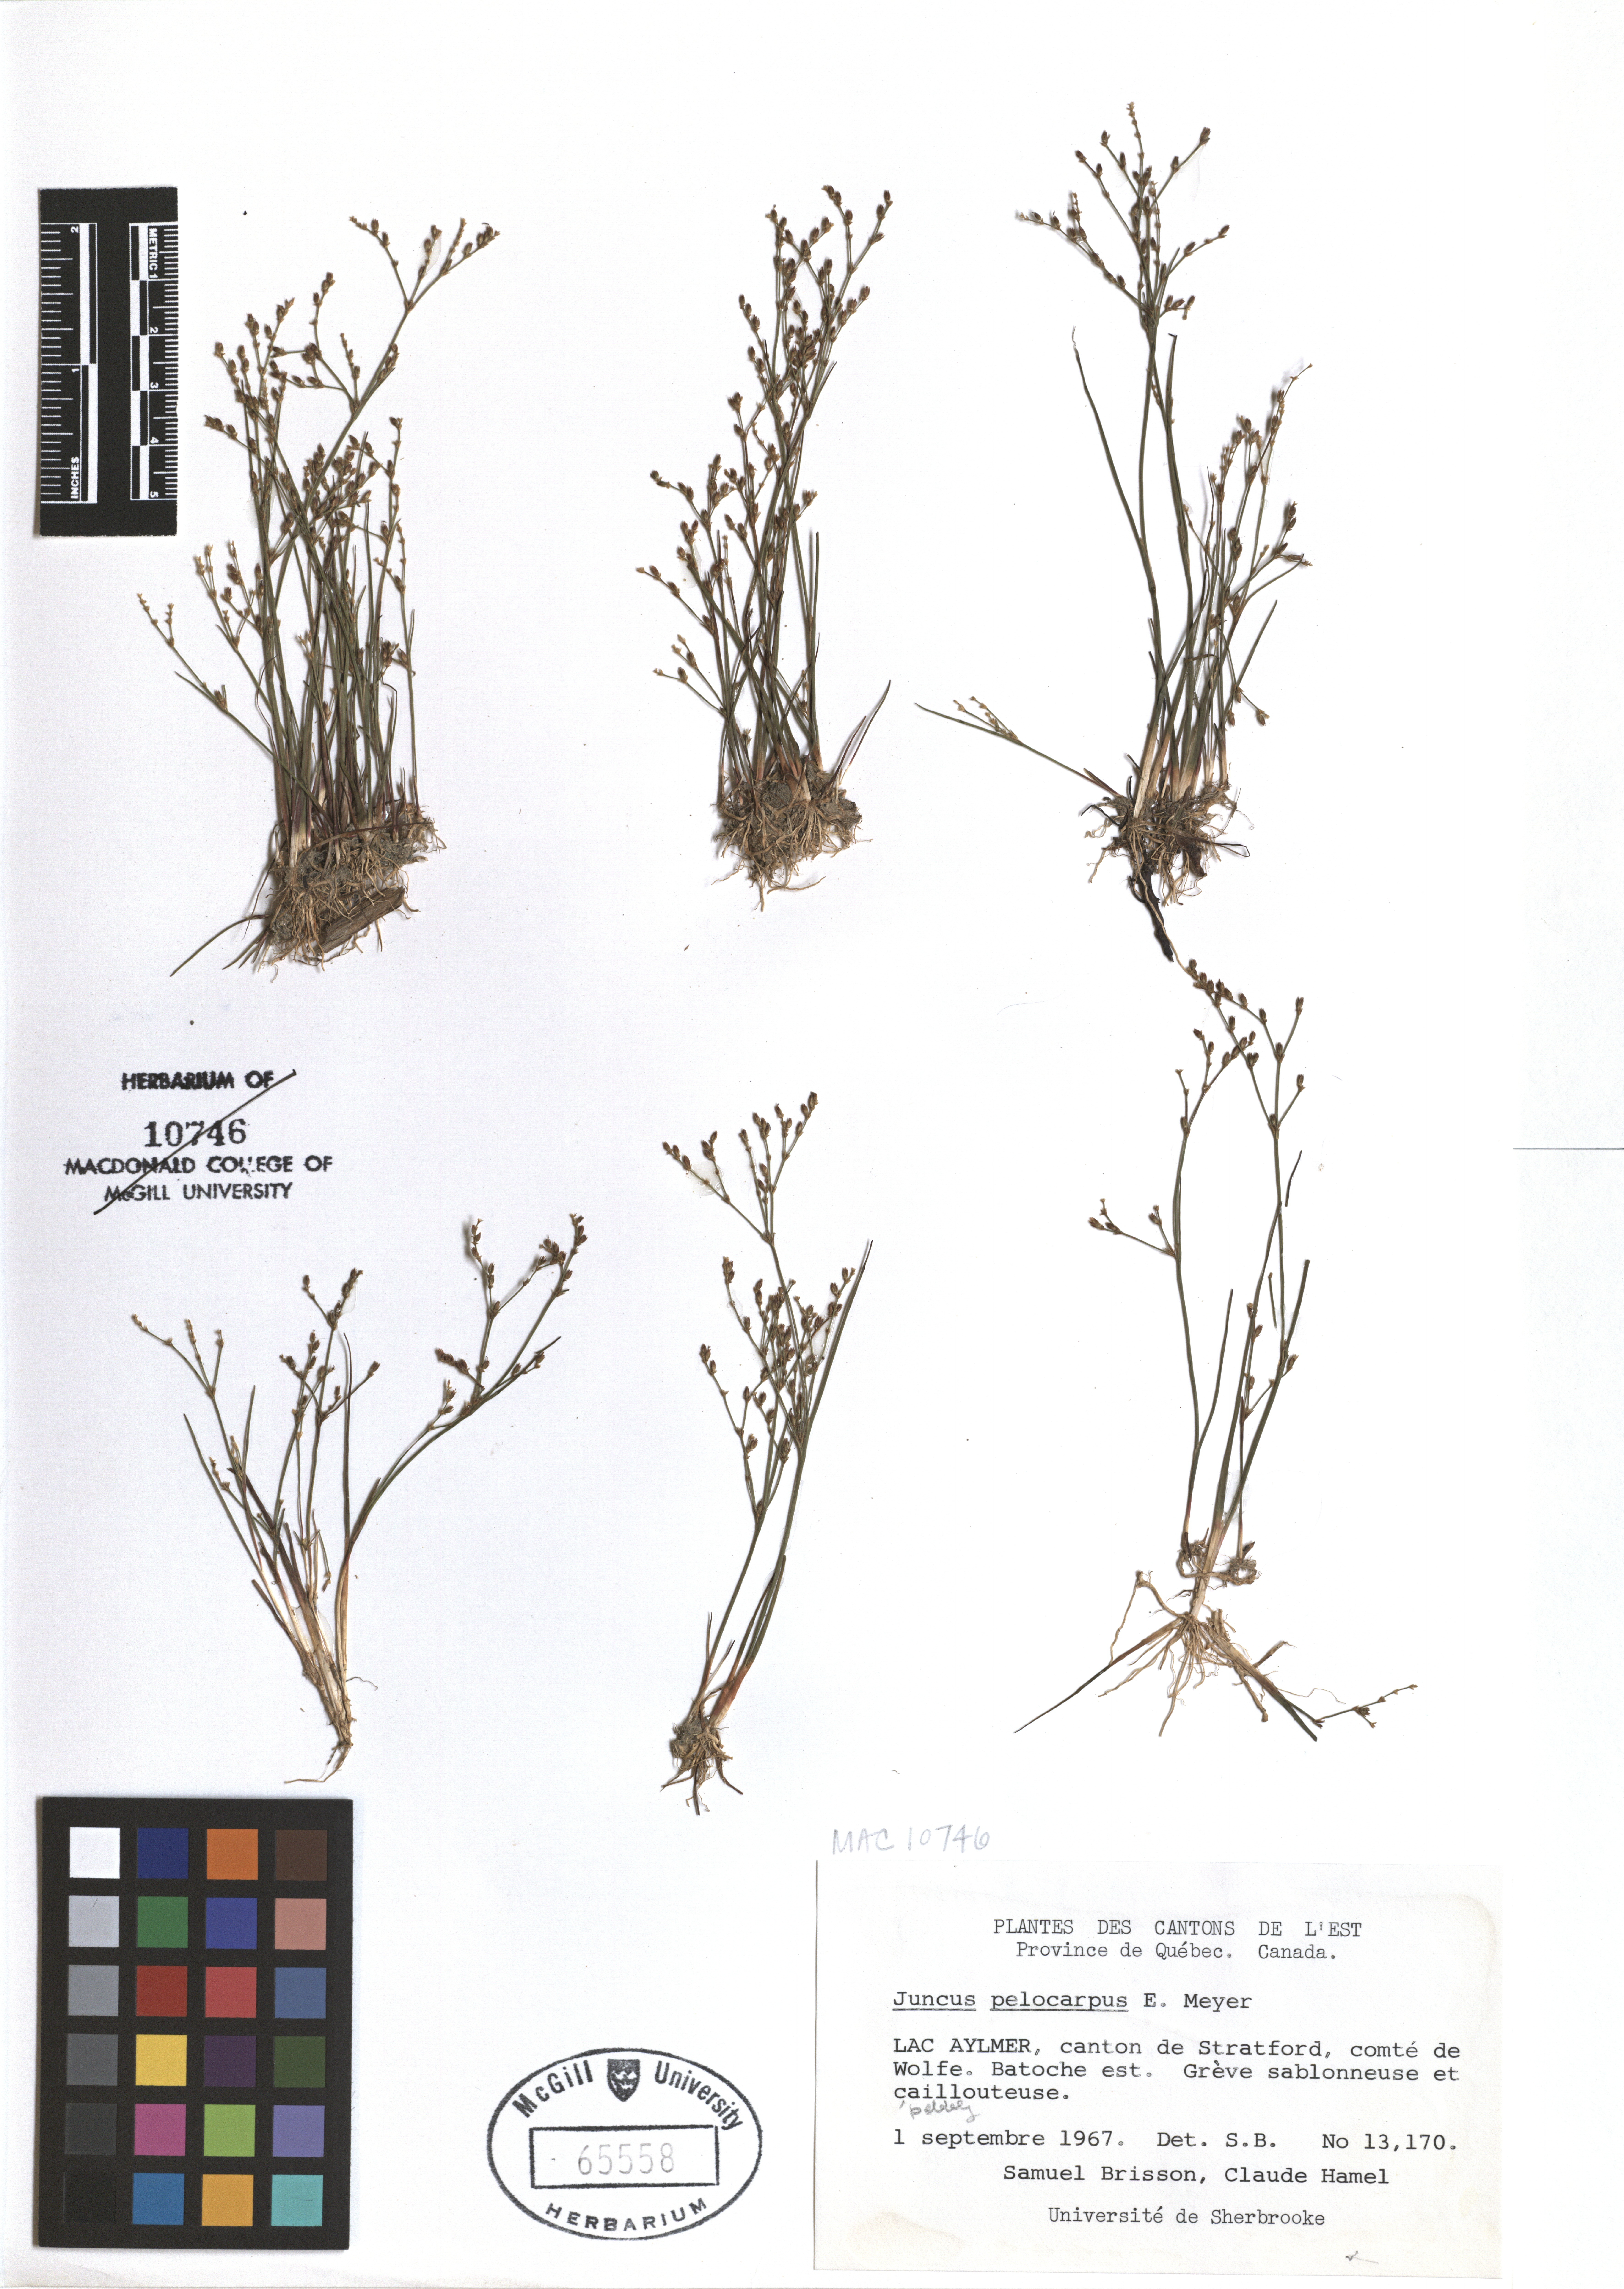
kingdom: Plantae
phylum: Tracheophyta
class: Liliopsida
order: Poales
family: Juncaceae
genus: Juncus
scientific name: Juncus pelocarpus
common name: Brown-fruited rush
